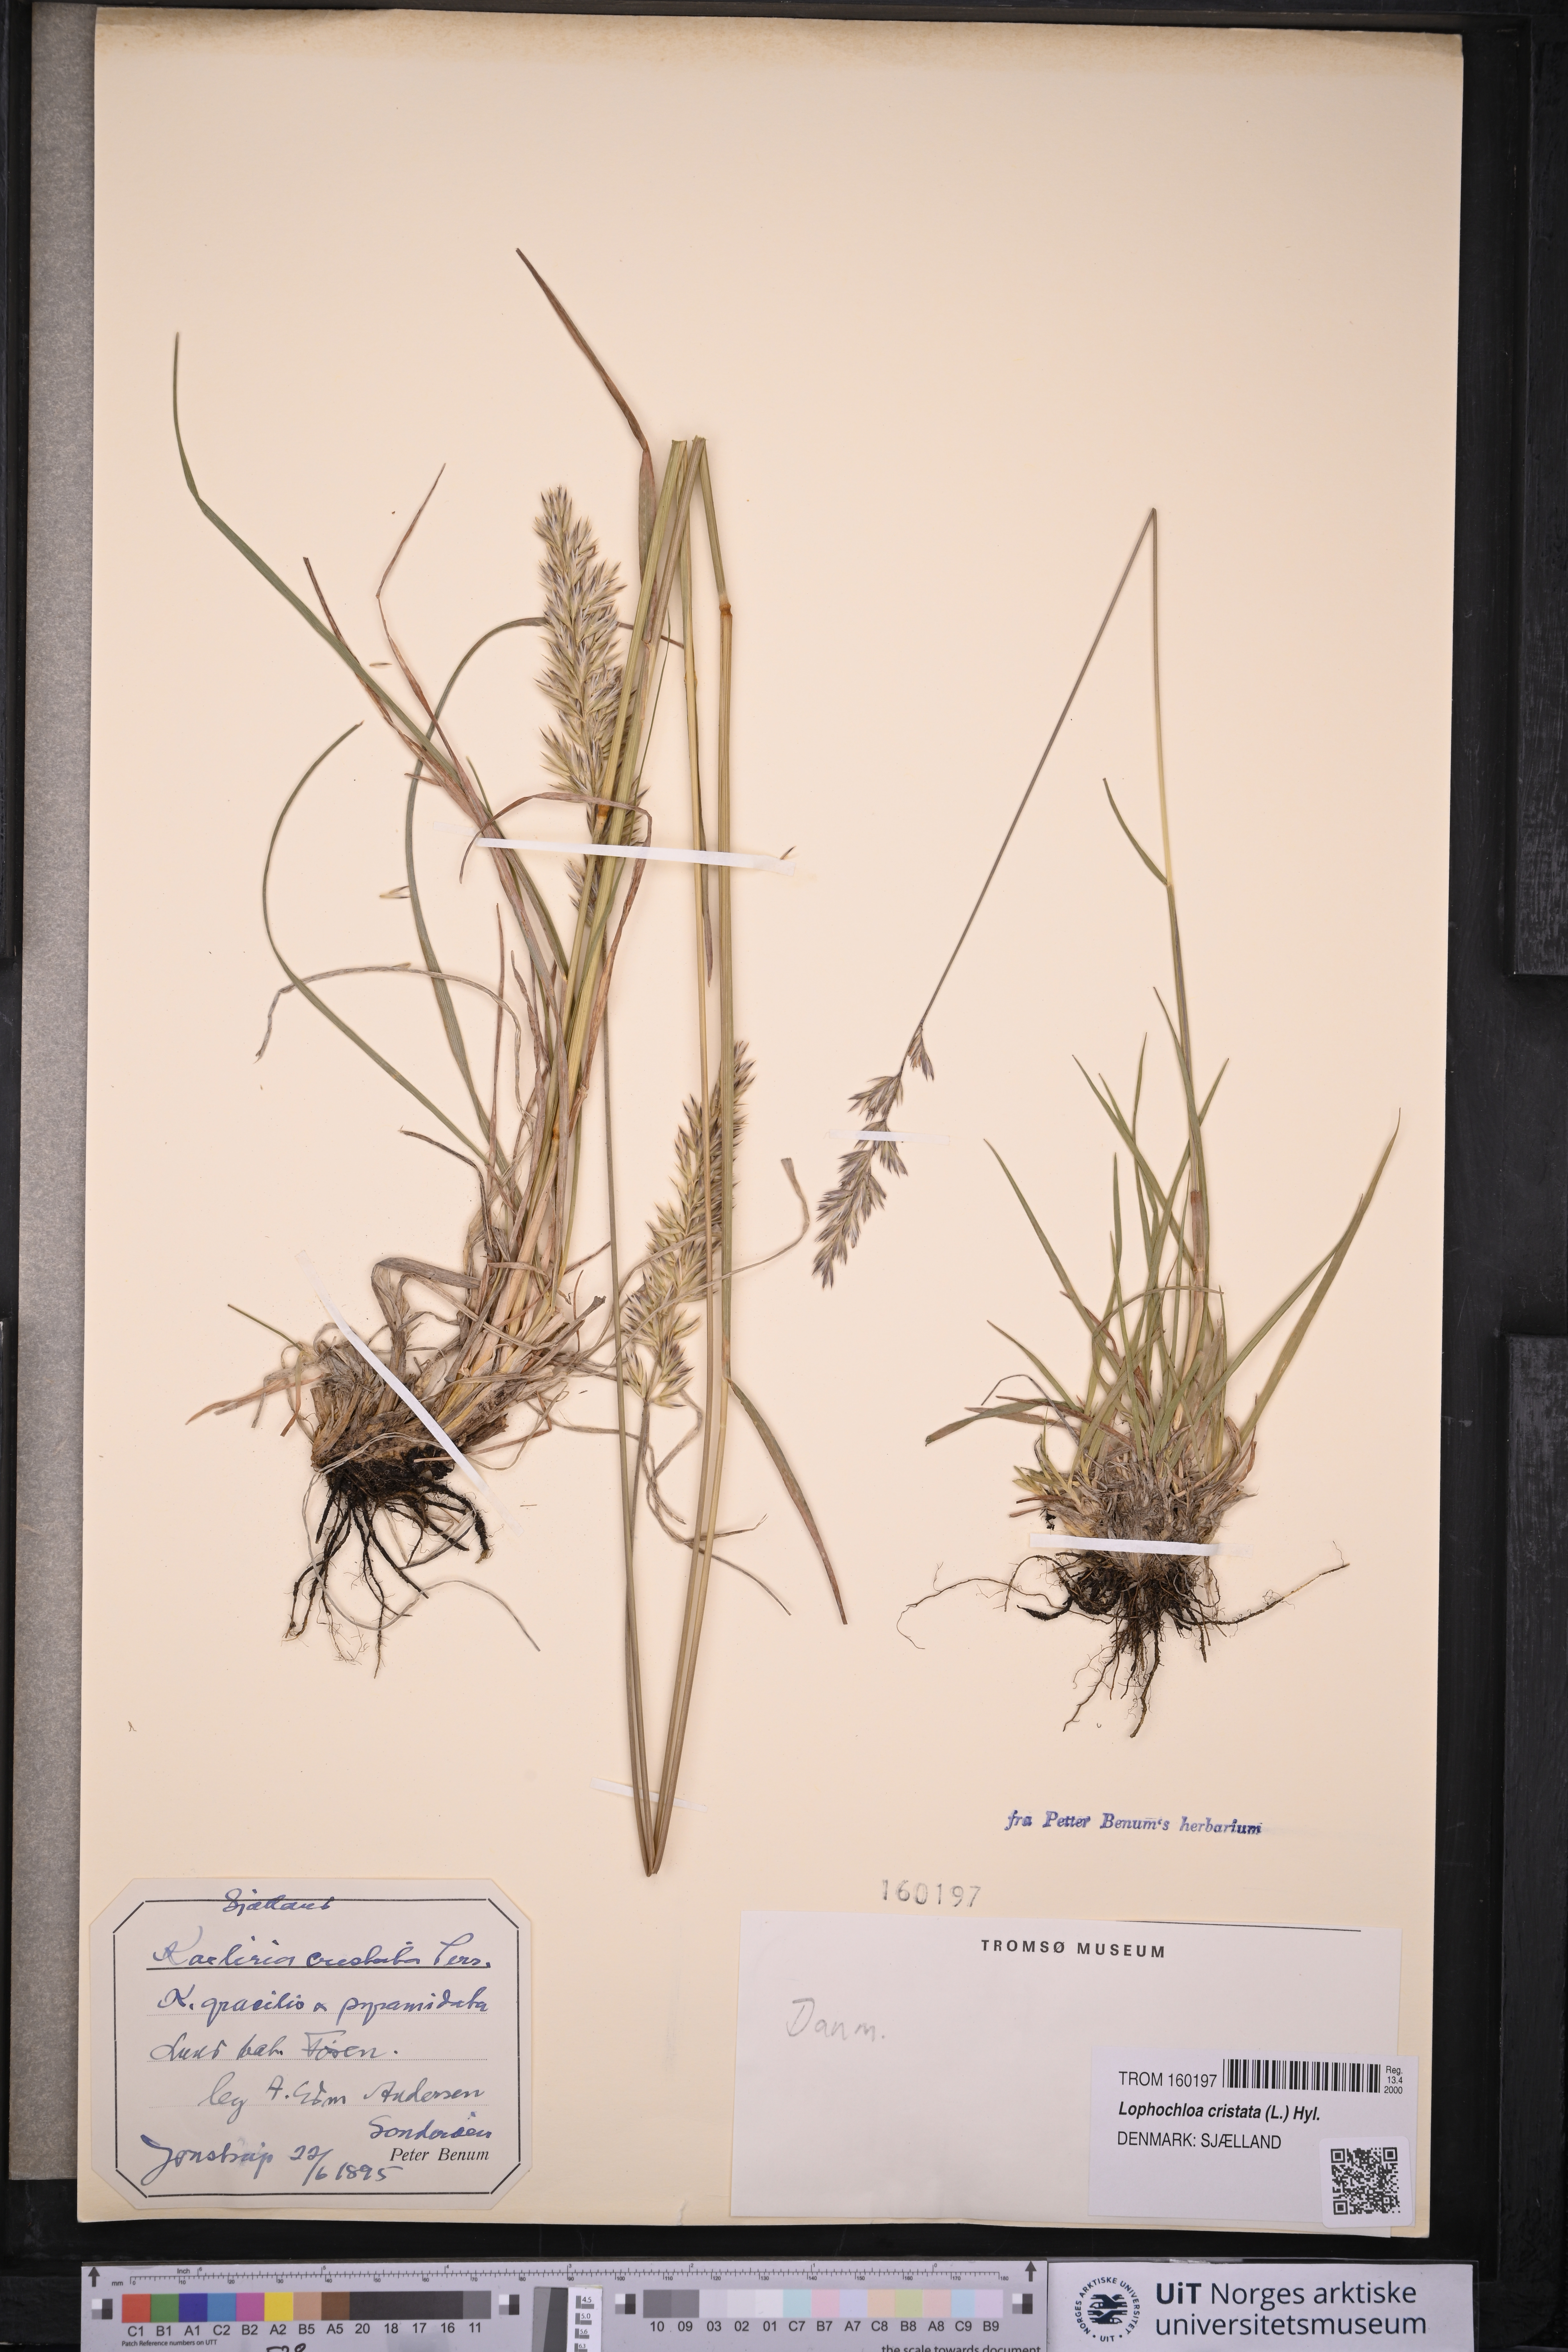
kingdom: Plantae
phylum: Tracheophyta
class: Liliopsida
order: Poales
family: Poaceae
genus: Rostraria
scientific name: Rostraria cristata
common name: Mediterranean hair-grass
